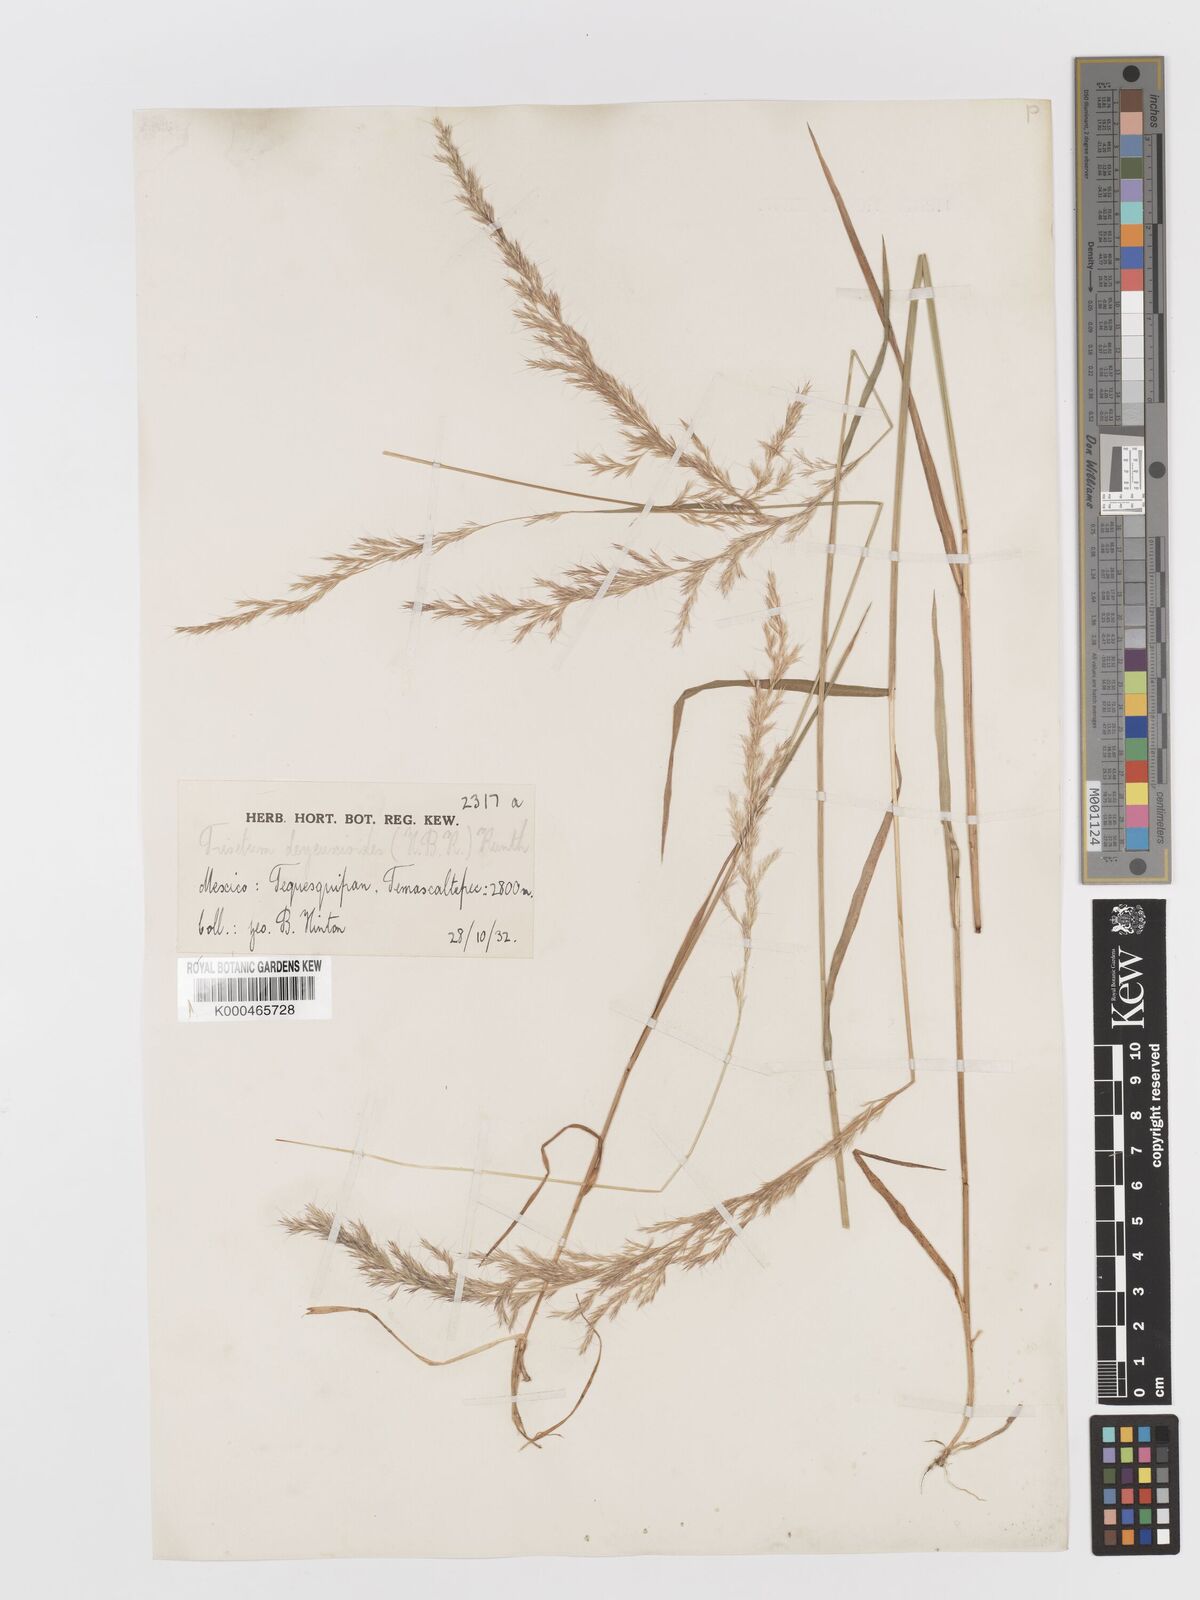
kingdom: Plantae
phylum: Tracheophyta
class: Liliopsida
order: Poales
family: Poaceae
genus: Peyritschia
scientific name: Peyritschia deyeuxioides
